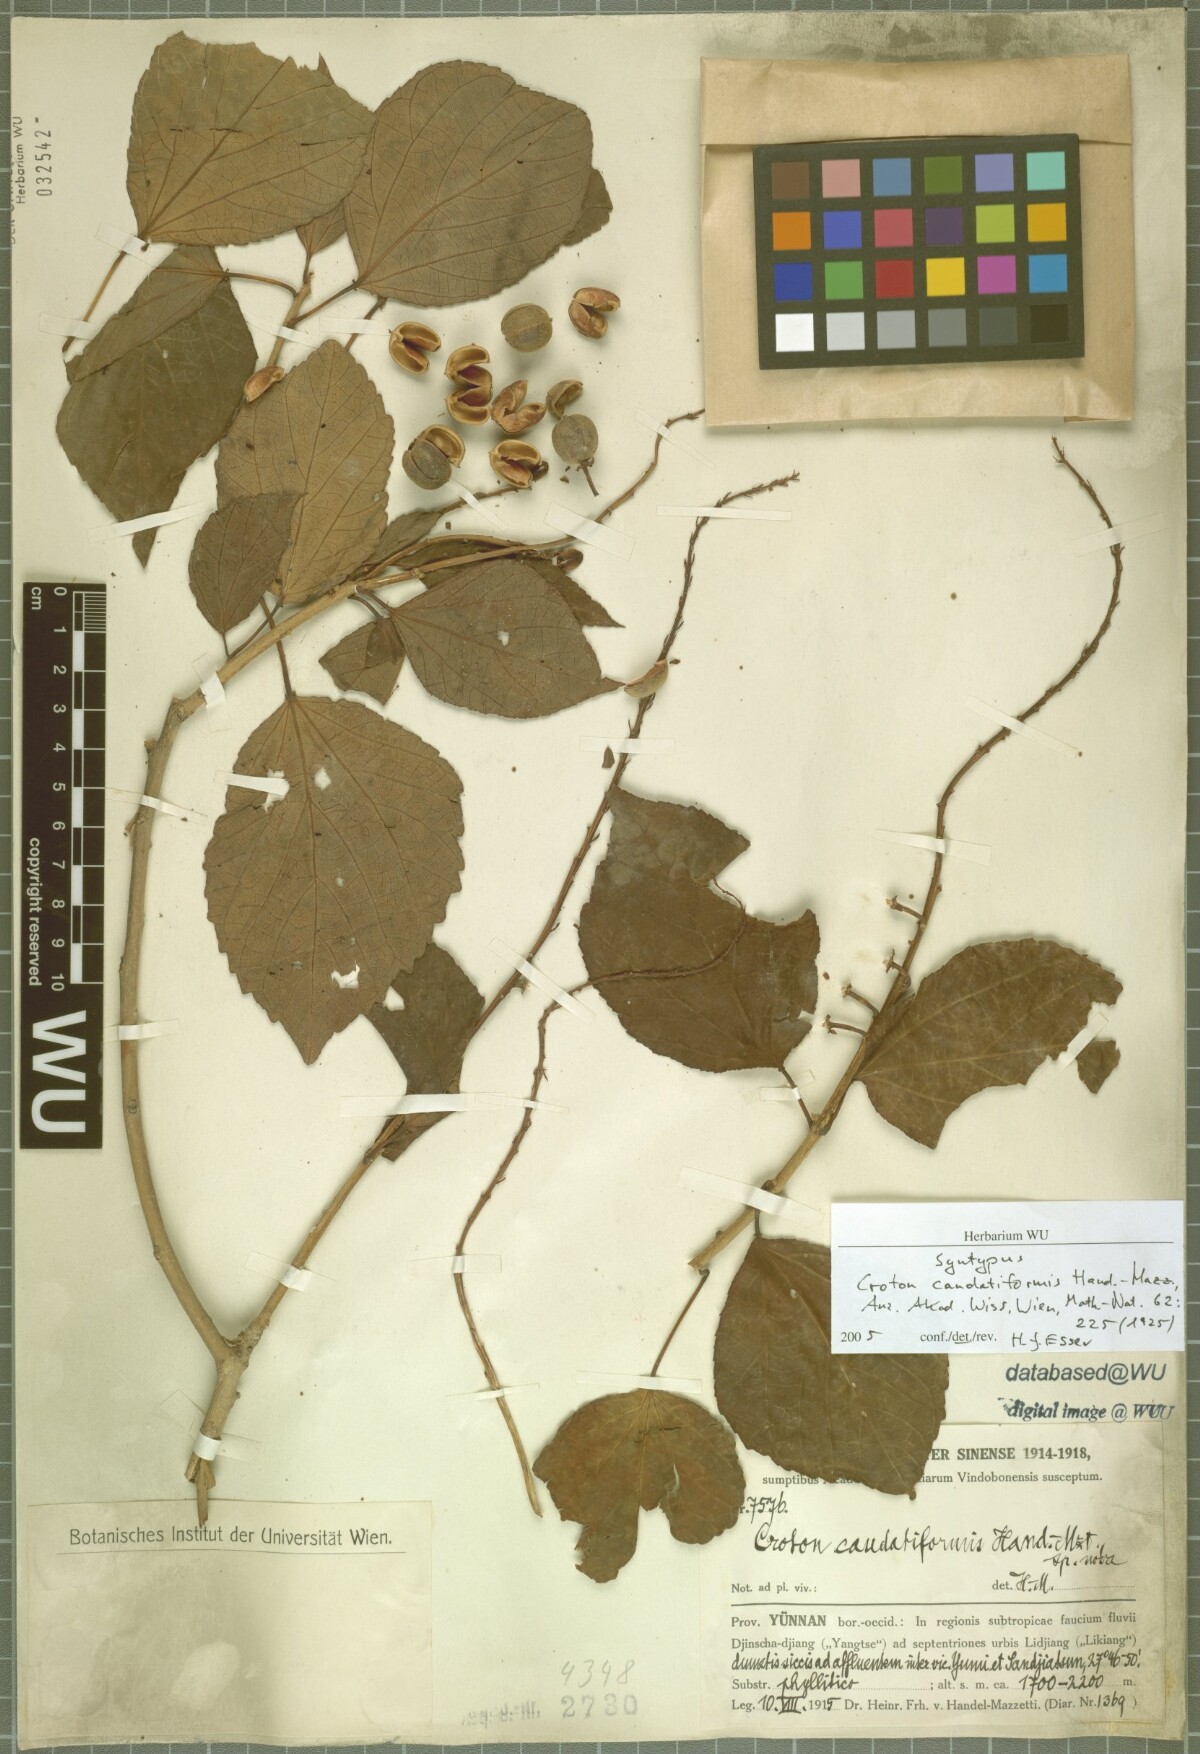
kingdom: Plantae
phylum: Tracheophyta
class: Magnoliopsida
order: Malpighiales
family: Euphorbiaceae
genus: Croton
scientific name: Croton euryphyllus
